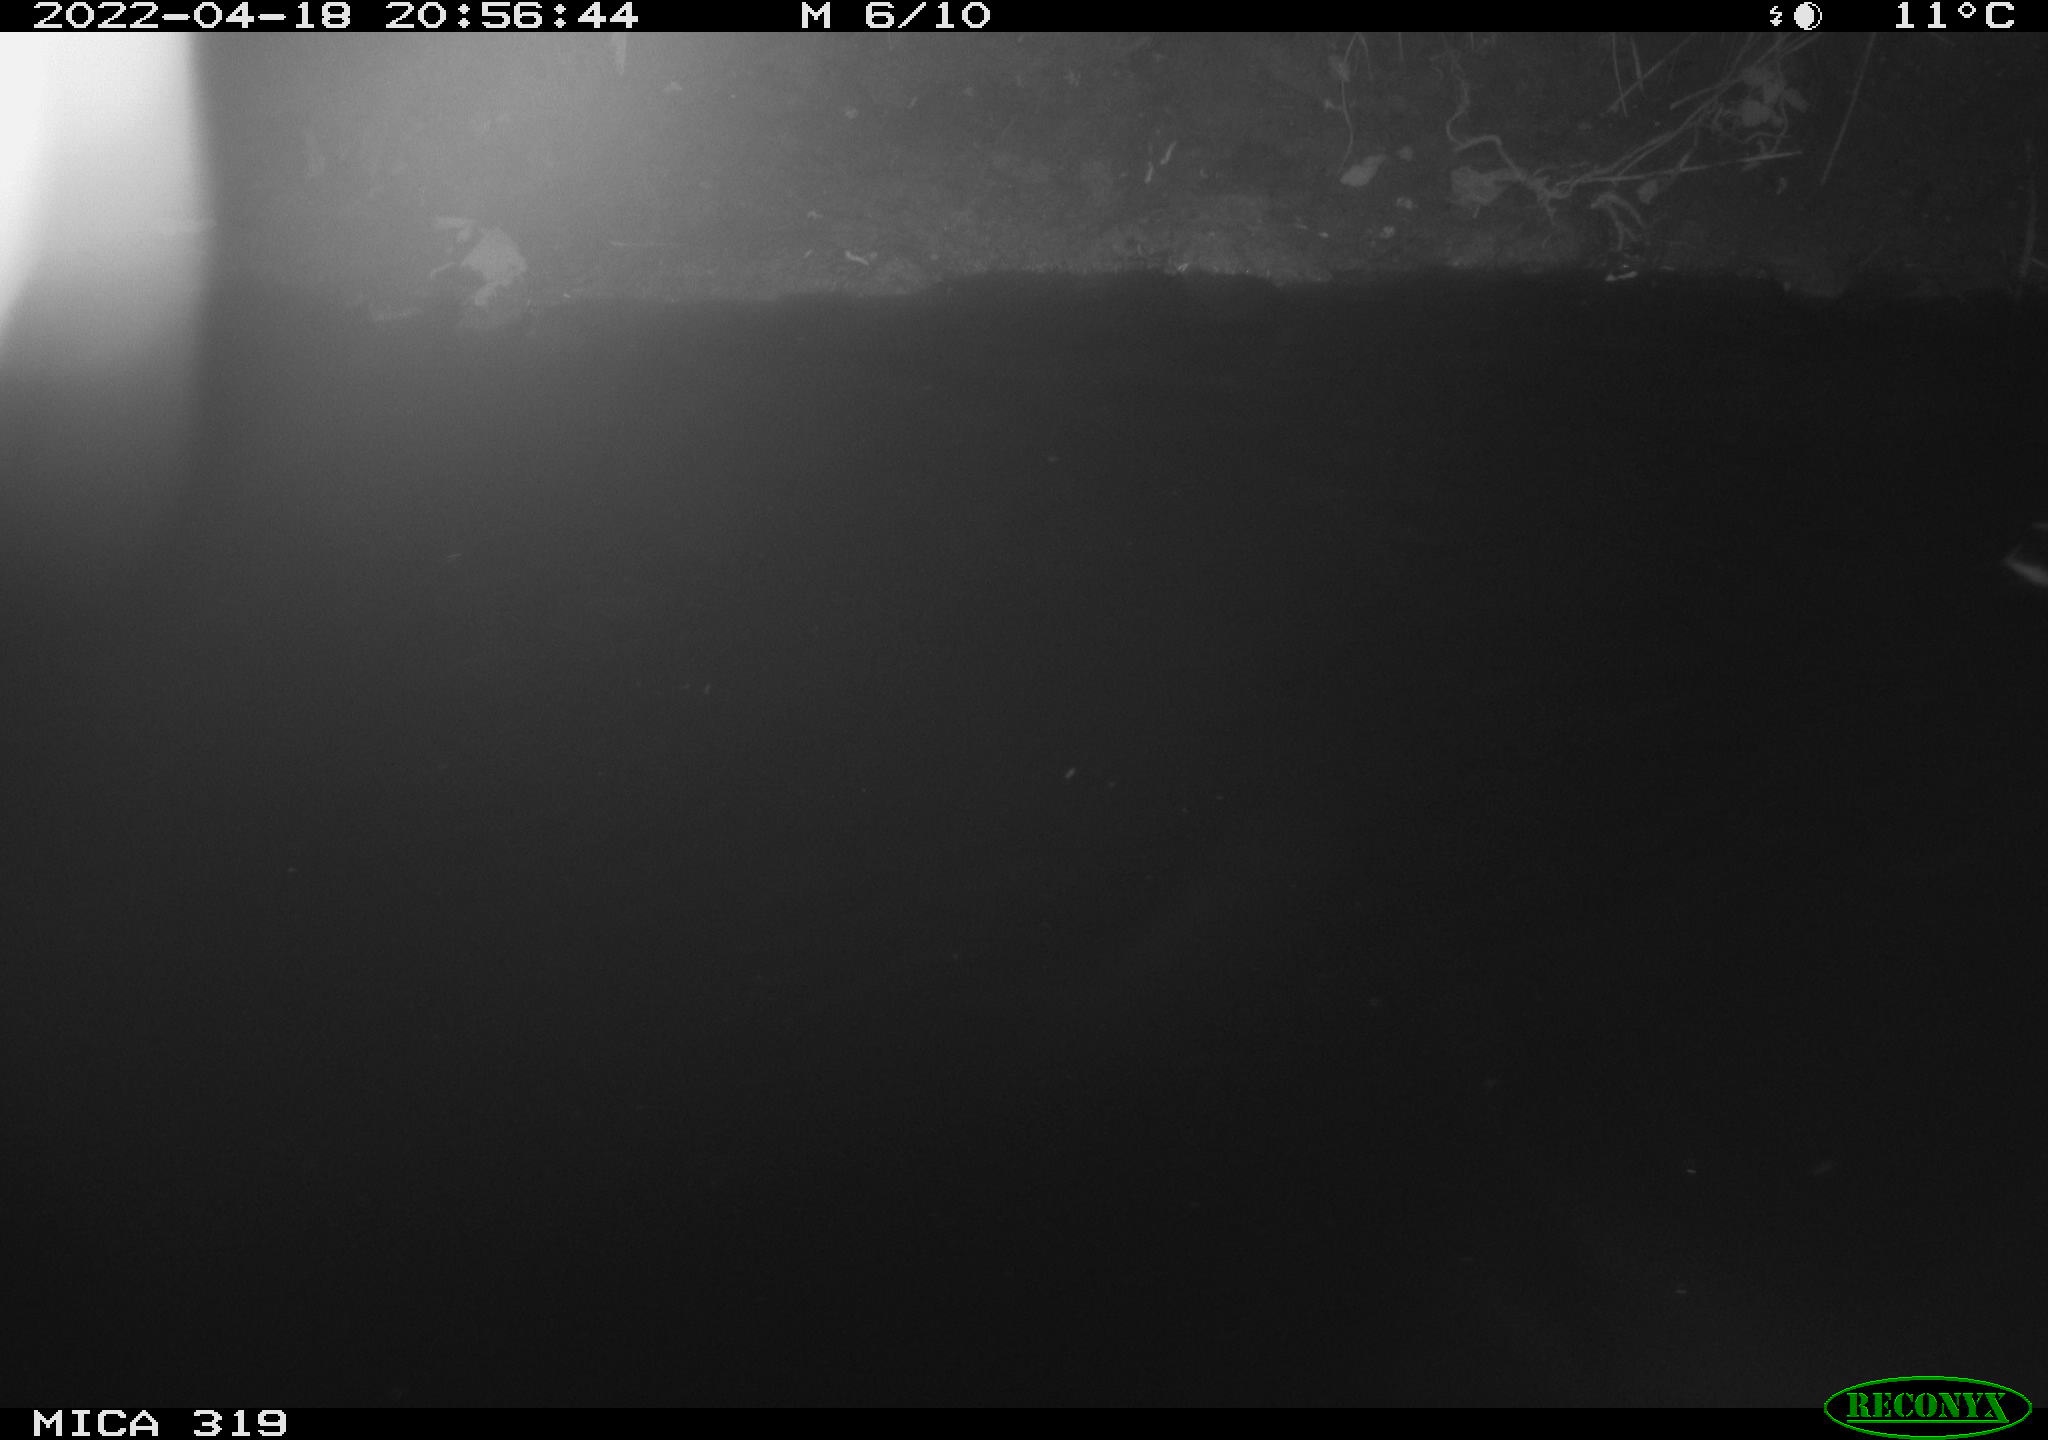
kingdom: Animalia
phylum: Chordata
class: Aves
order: Anseriformes
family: Anatidae
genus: Anas
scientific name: Anas platyrhynchos
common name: Mallard
